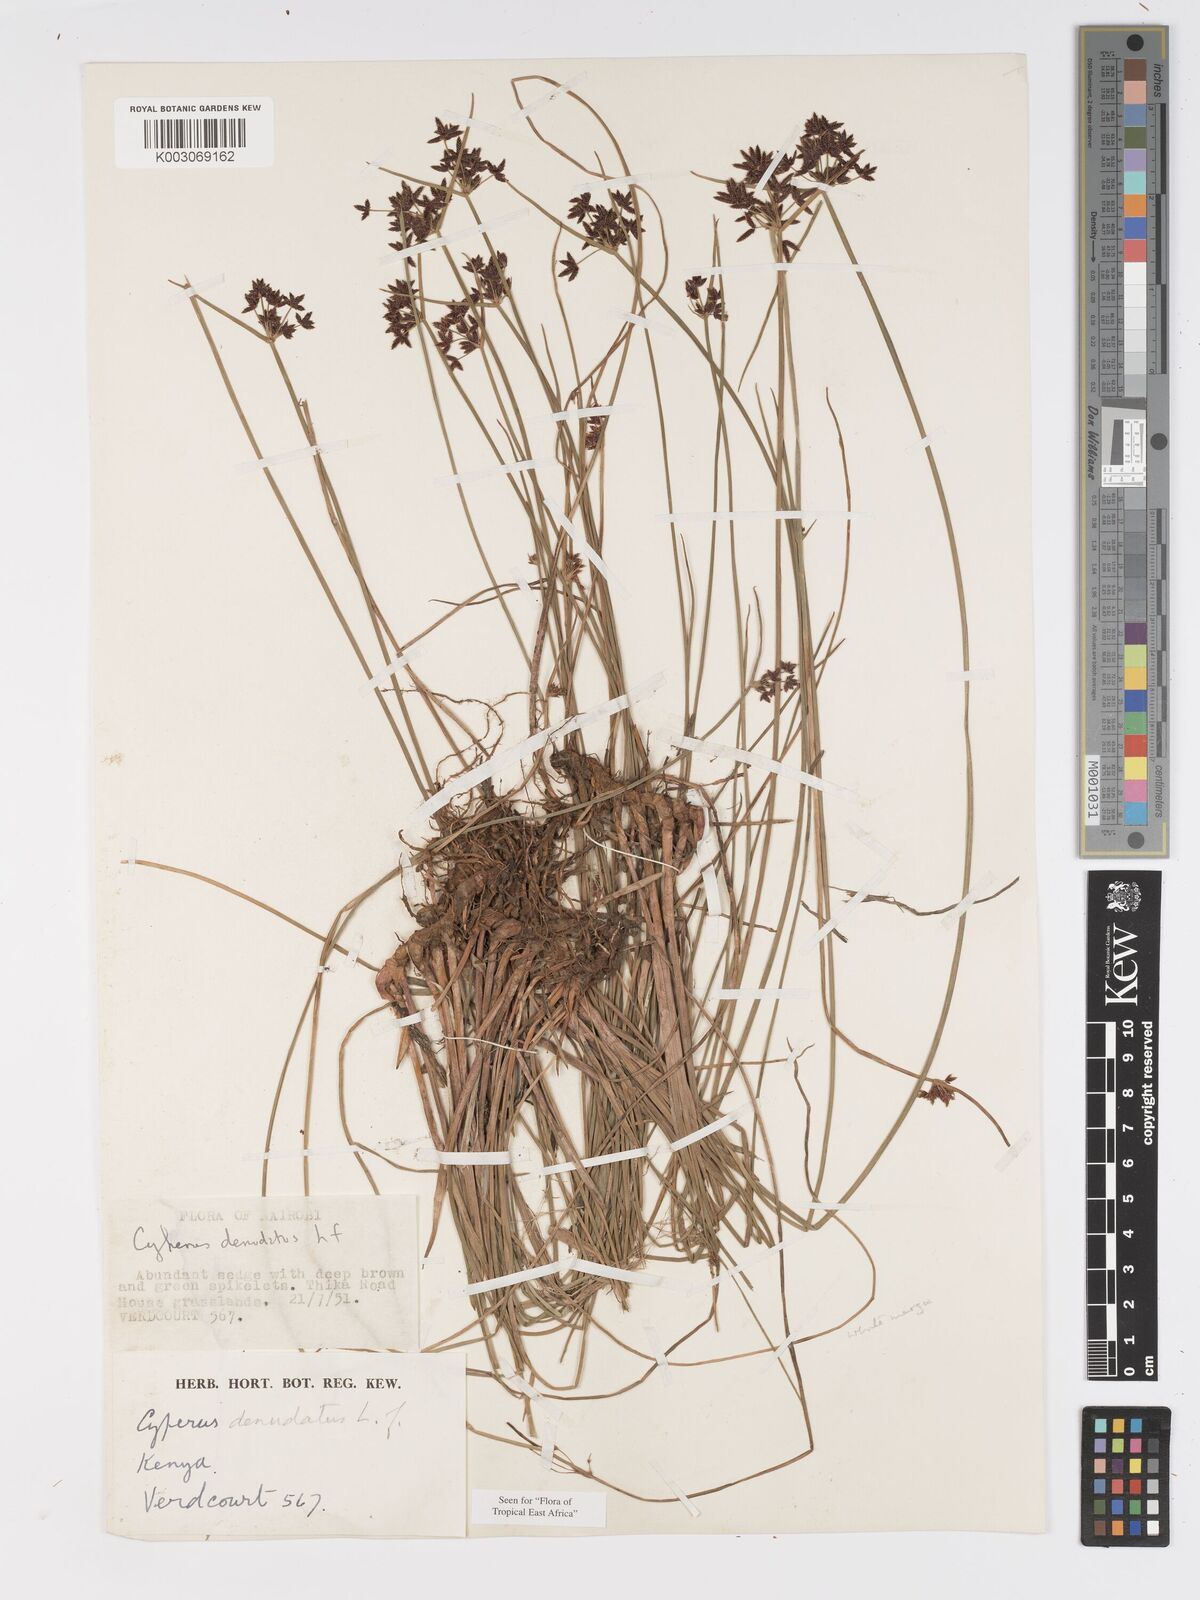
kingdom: Plantae
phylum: Tracheophyta
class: Liliopsida
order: Poales
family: Cyperaceae
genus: Cyperus
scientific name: Cyperus denudatus
